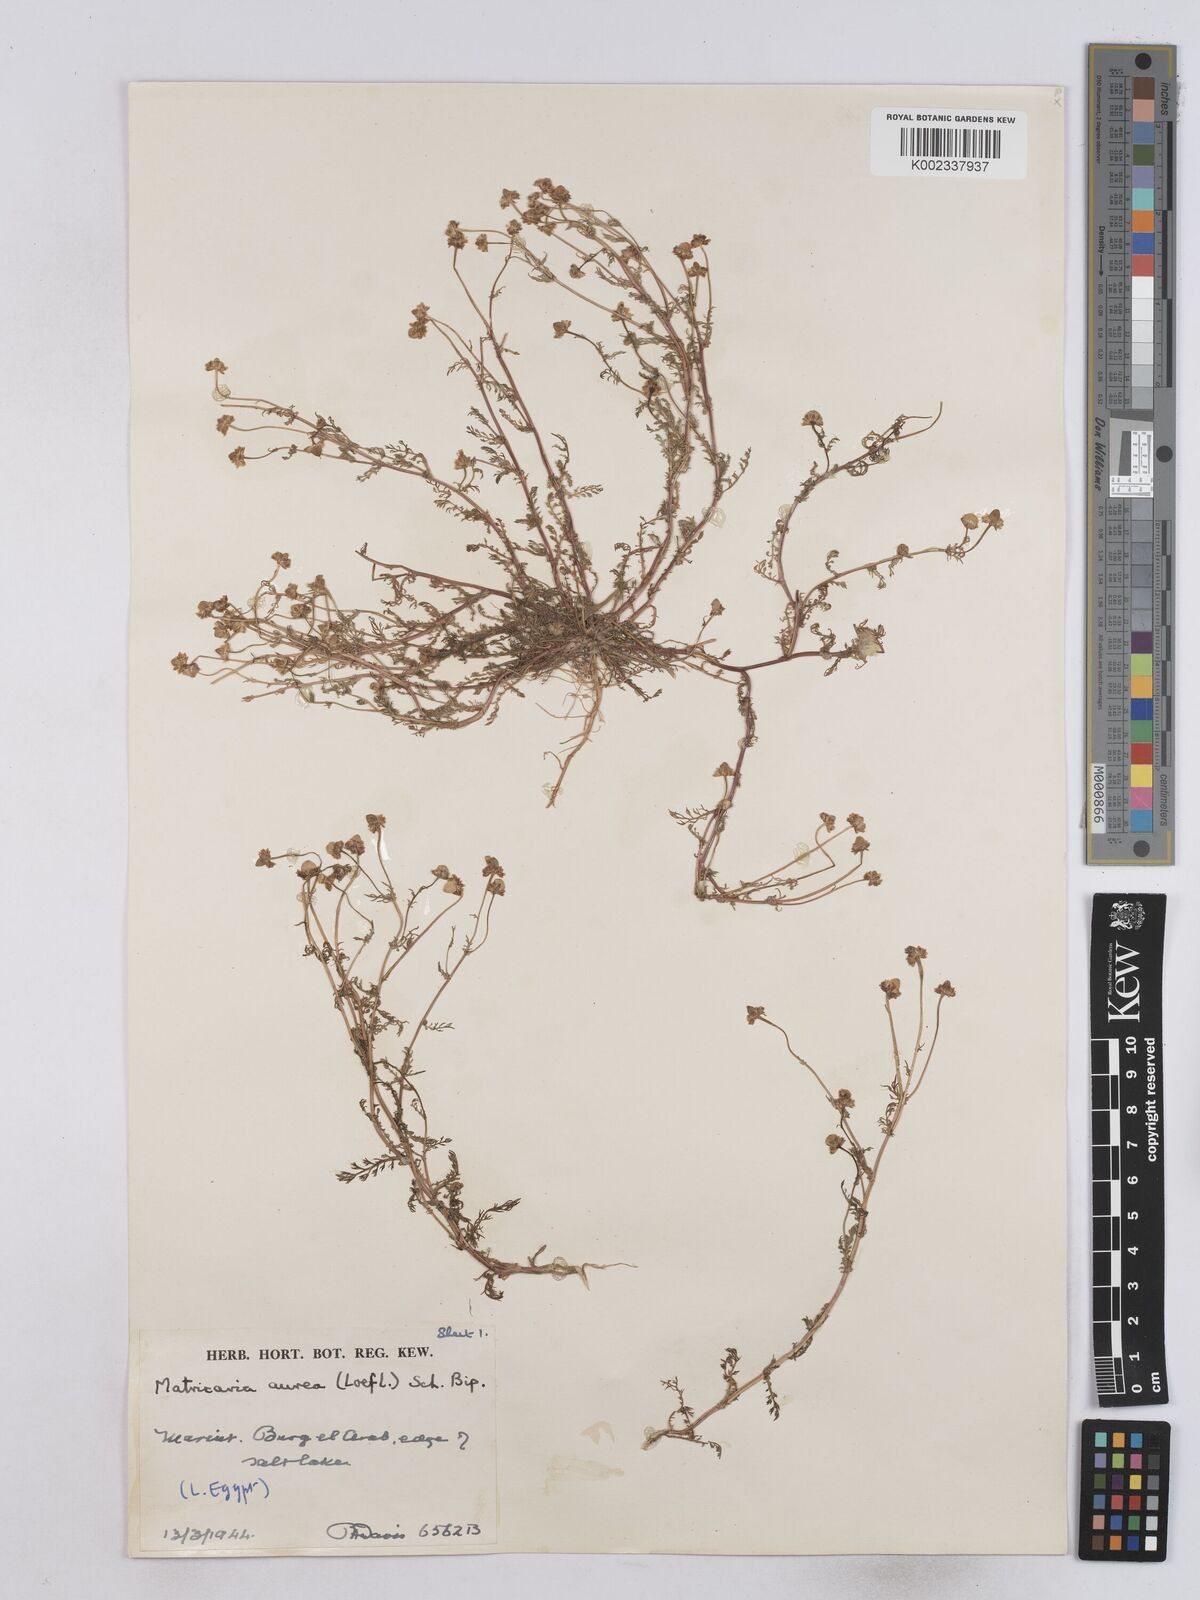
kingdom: Plantae
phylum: Tracheophyta
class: Magnoliopsida
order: Asterales
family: Asteraceae
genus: Matricaria
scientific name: Matricaria aurea
